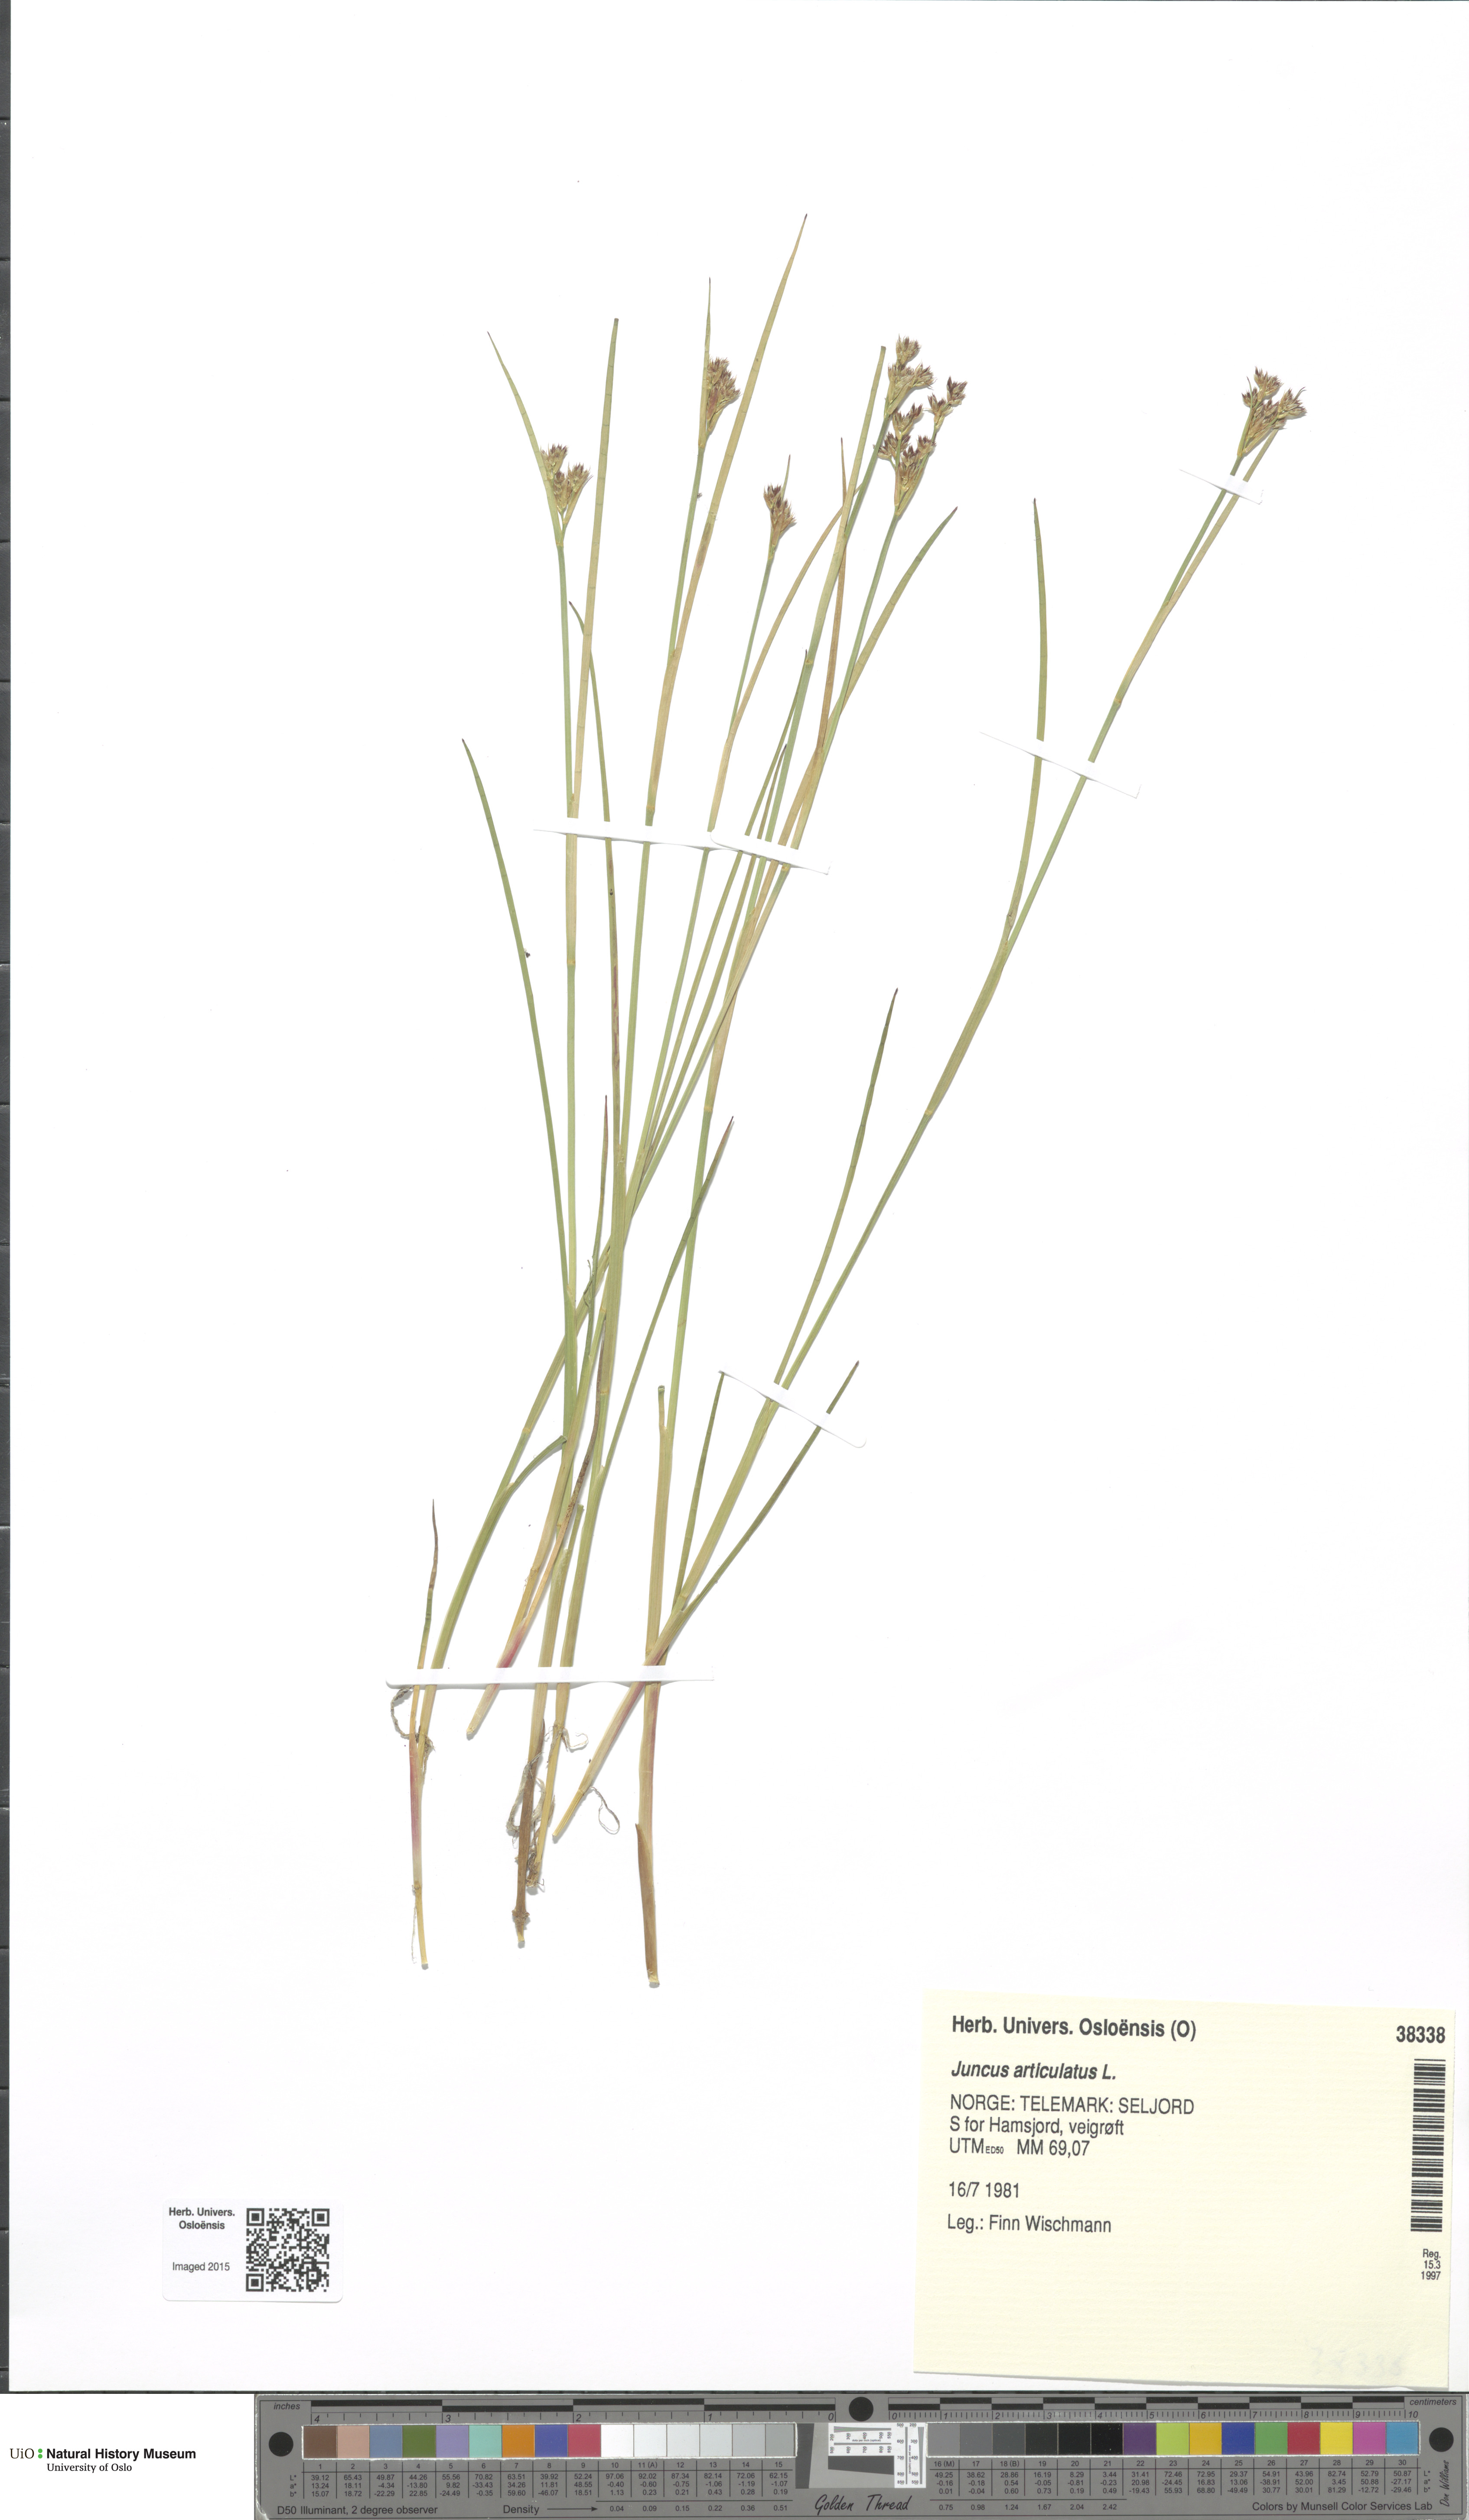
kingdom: Plantae
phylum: Tracheophyta
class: Liliopsida
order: Poales
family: Juncaceae
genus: Juncus
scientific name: Juncus articulatus
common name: Jointed rush
